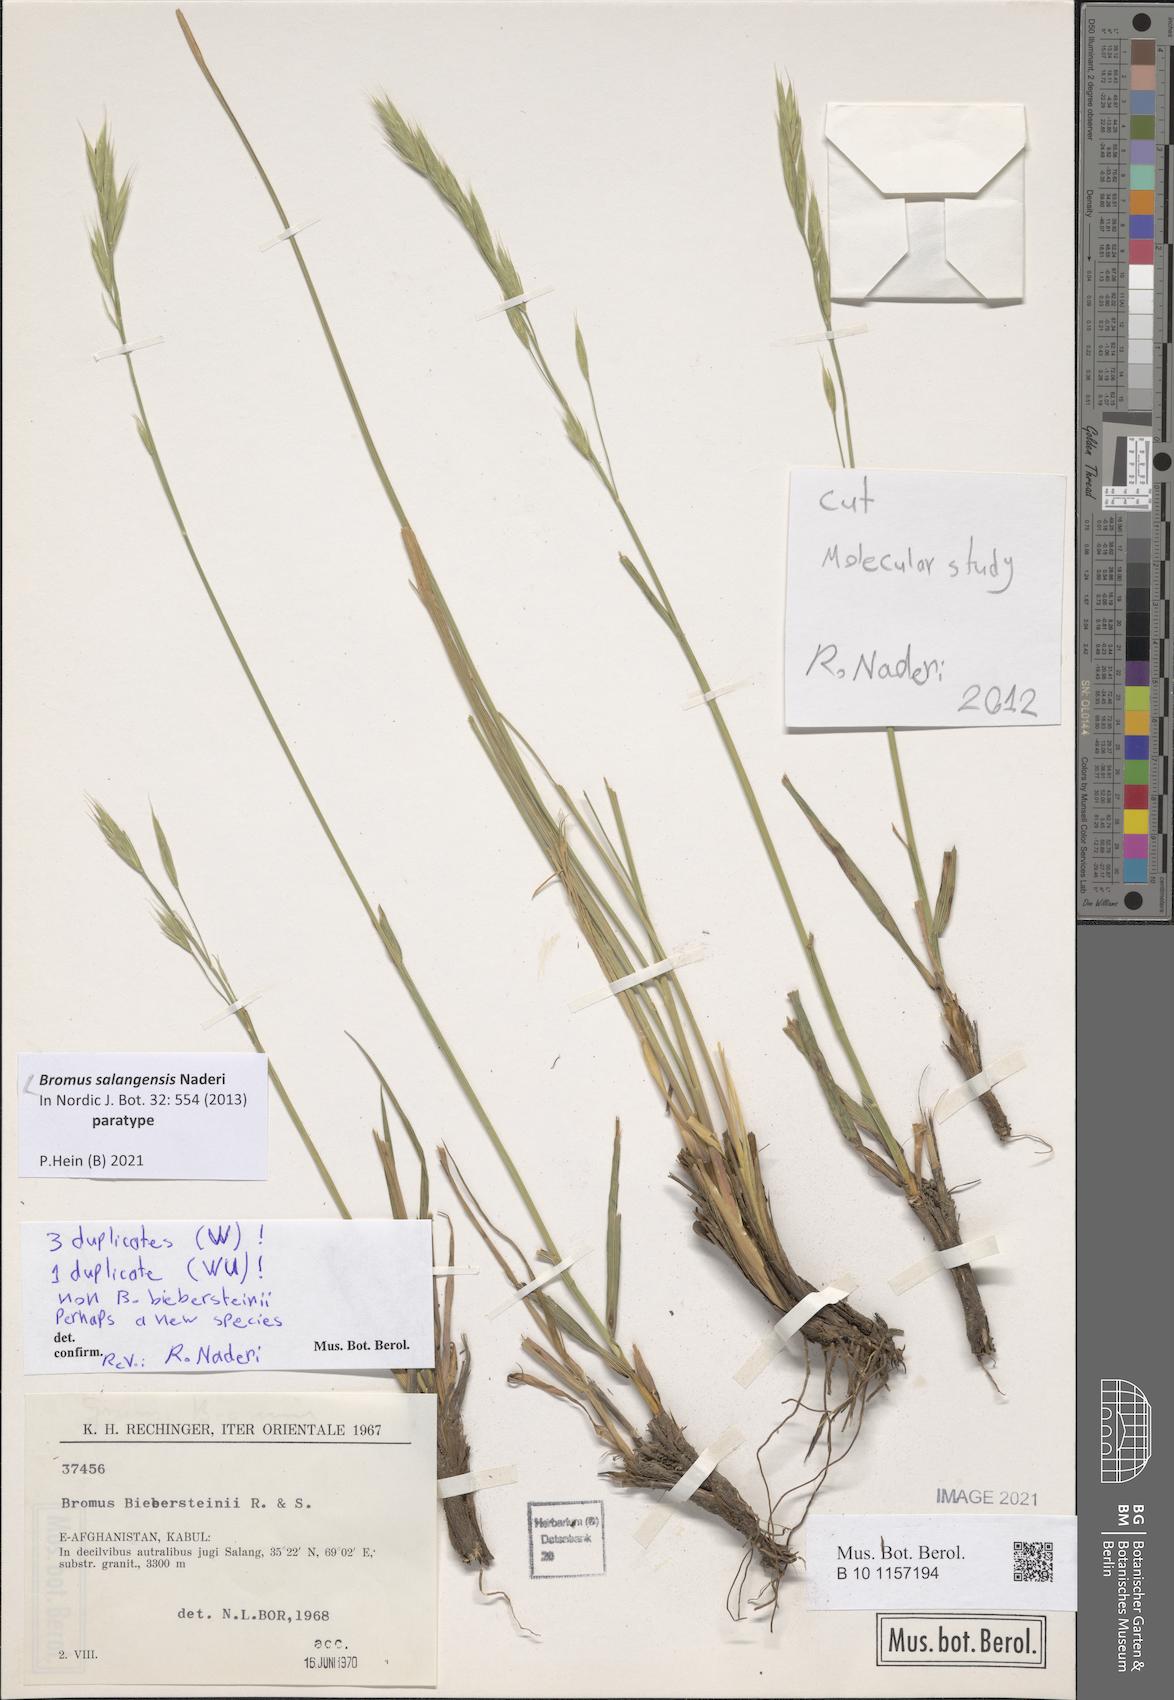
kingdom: Plantae
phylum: Tracheophyta
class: Liliopsida
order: Poales
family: Poaceae
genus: Bromus
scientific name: Bromus salangensis
